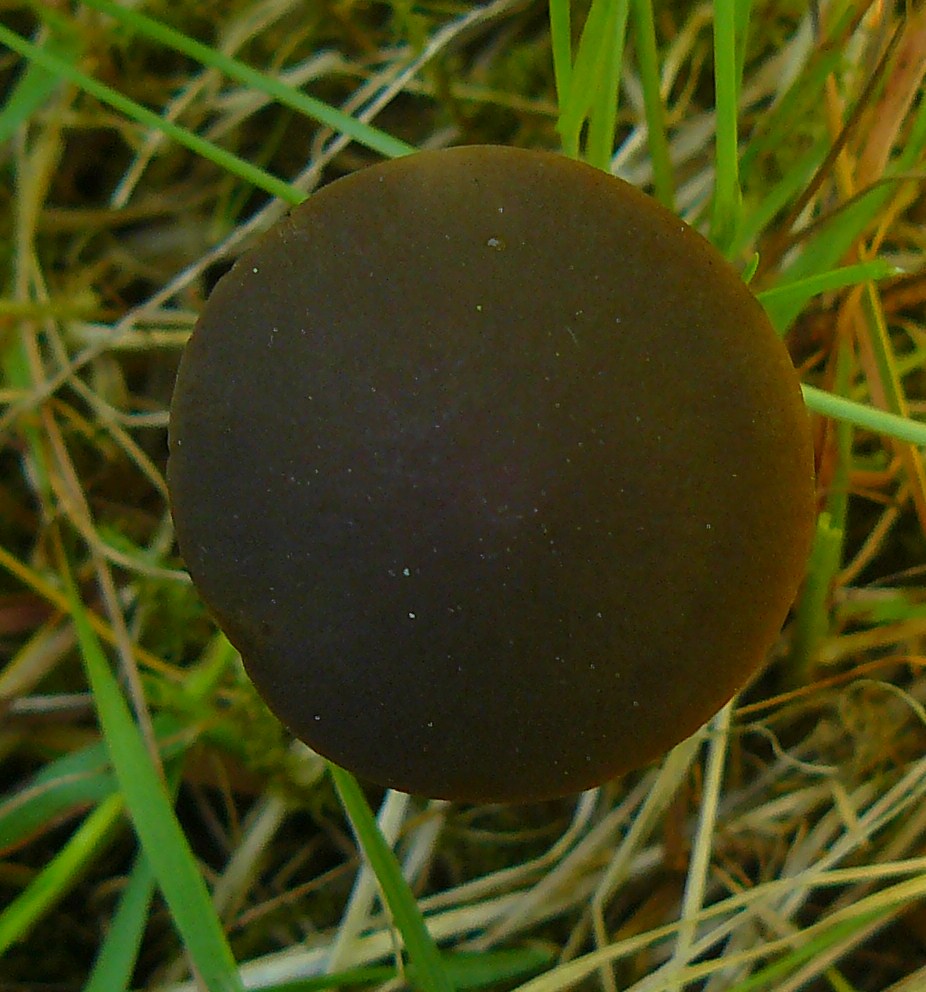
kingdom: Fungi
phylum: Basidiomycota
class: Agaricomycetes
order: Agaricales
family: Bolbitiaceae
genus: Panaeolus
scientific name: Panaeolus acuminatus
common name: høj glanshat
